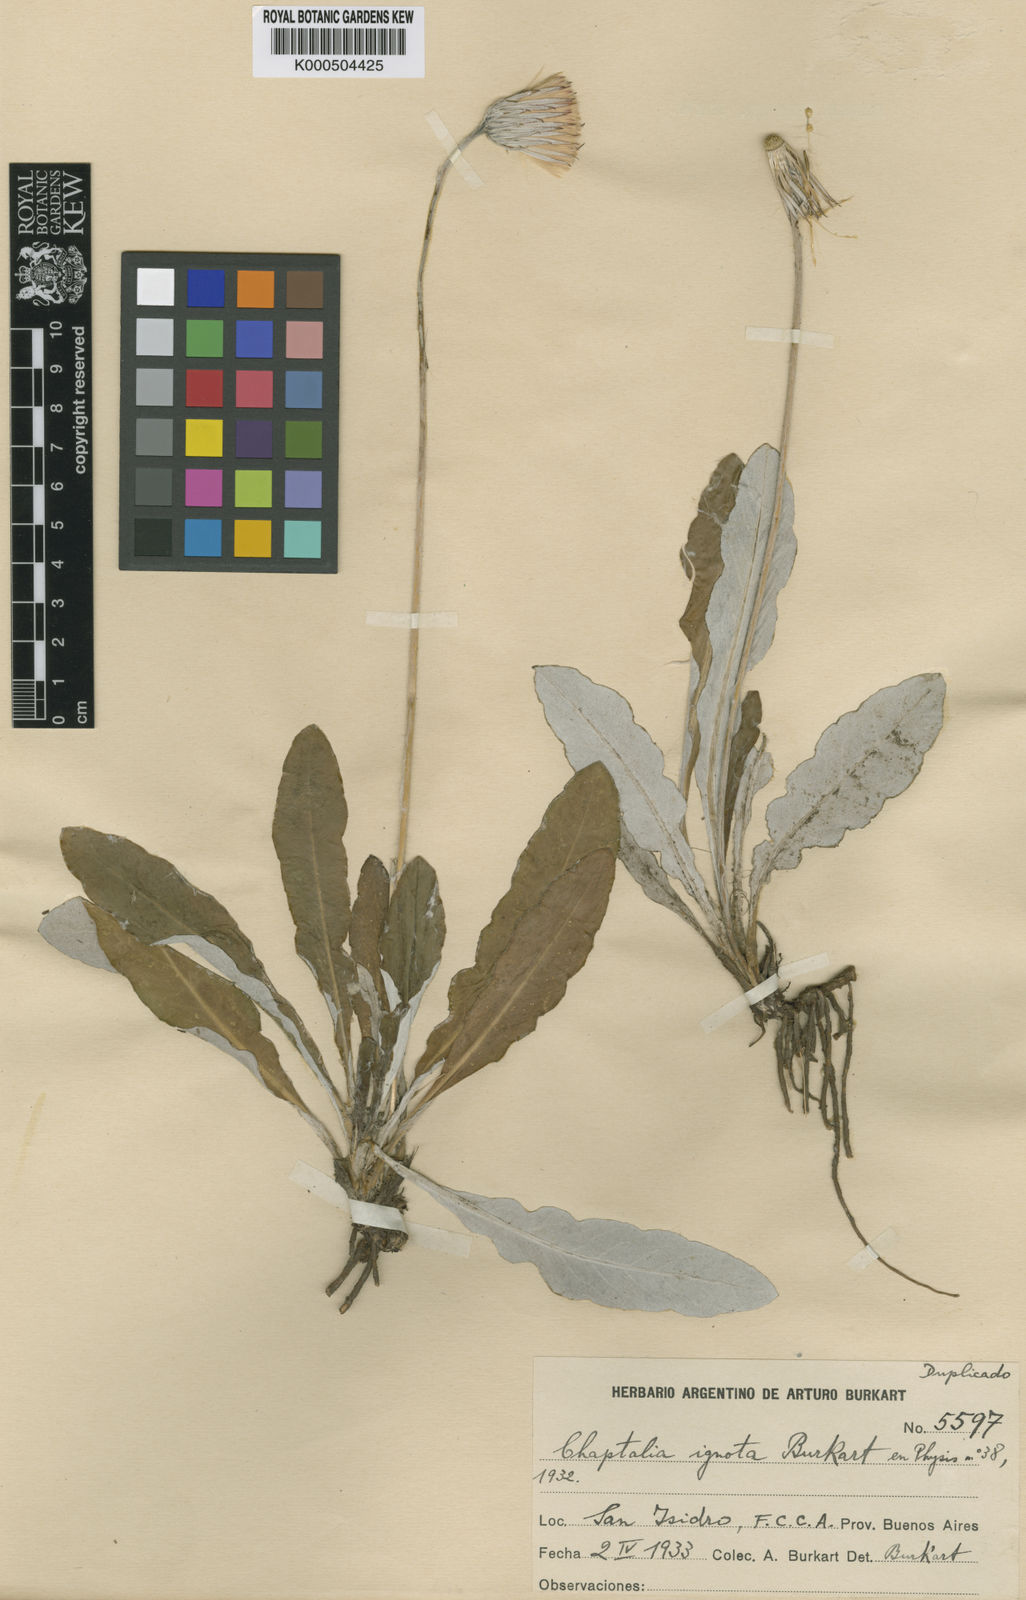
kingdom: Plantae
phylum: Tracheophyta
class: Magnoliopsida
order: Asterales
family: Asteraceae
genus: Chaptalia
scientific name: Chaptalia ignota
